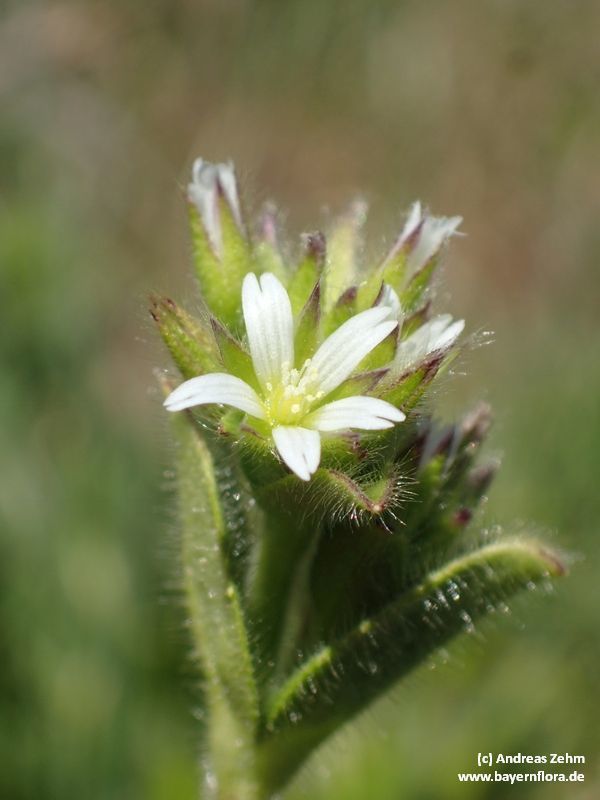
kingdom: Plantae
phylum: Tracheophyta
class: Magnoliopsida
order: Caryophyllales
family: Caryophyllaceae
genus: Cerastium
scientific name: Cerastium glomeratum
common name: Sticky chickweed
